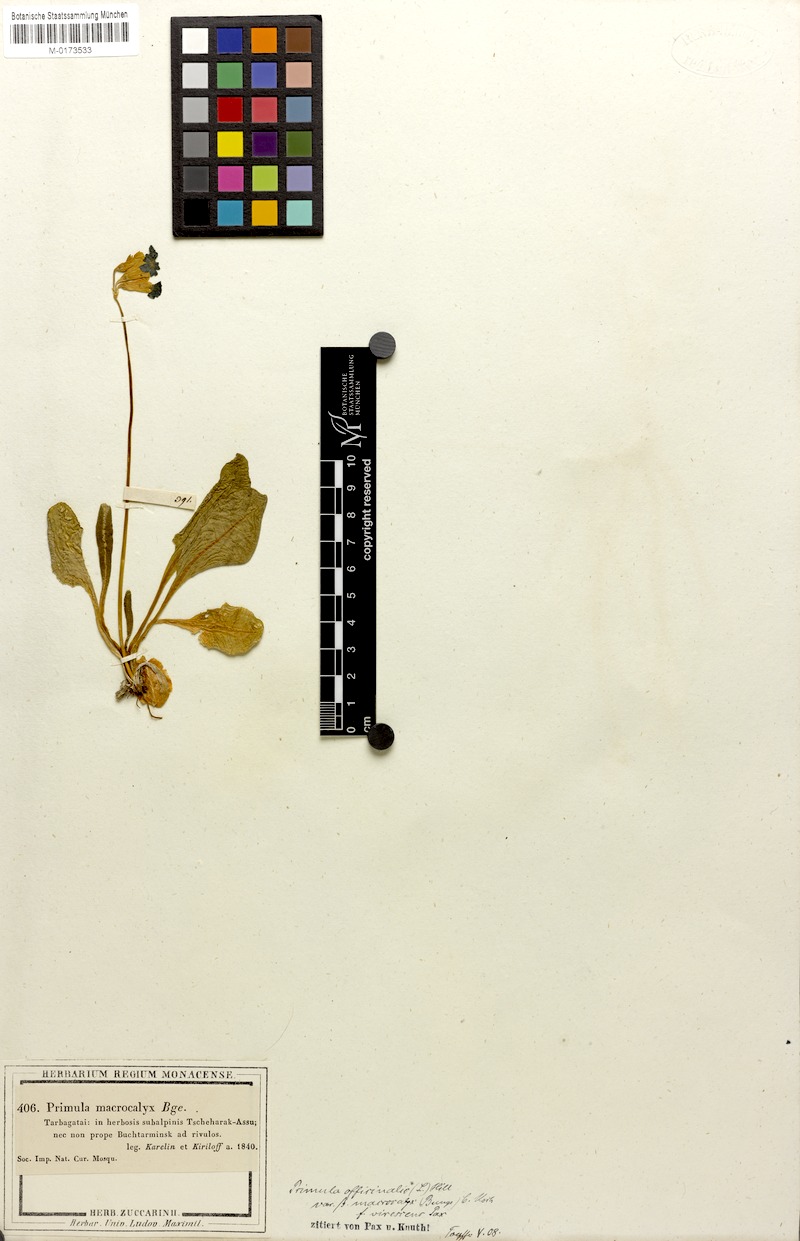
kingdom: Plantae
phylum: Tracheophyta
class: Magnoliopsida
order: Ericales
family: Primulaceae
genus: Primula
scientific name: Primula veris
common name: Cowslip
